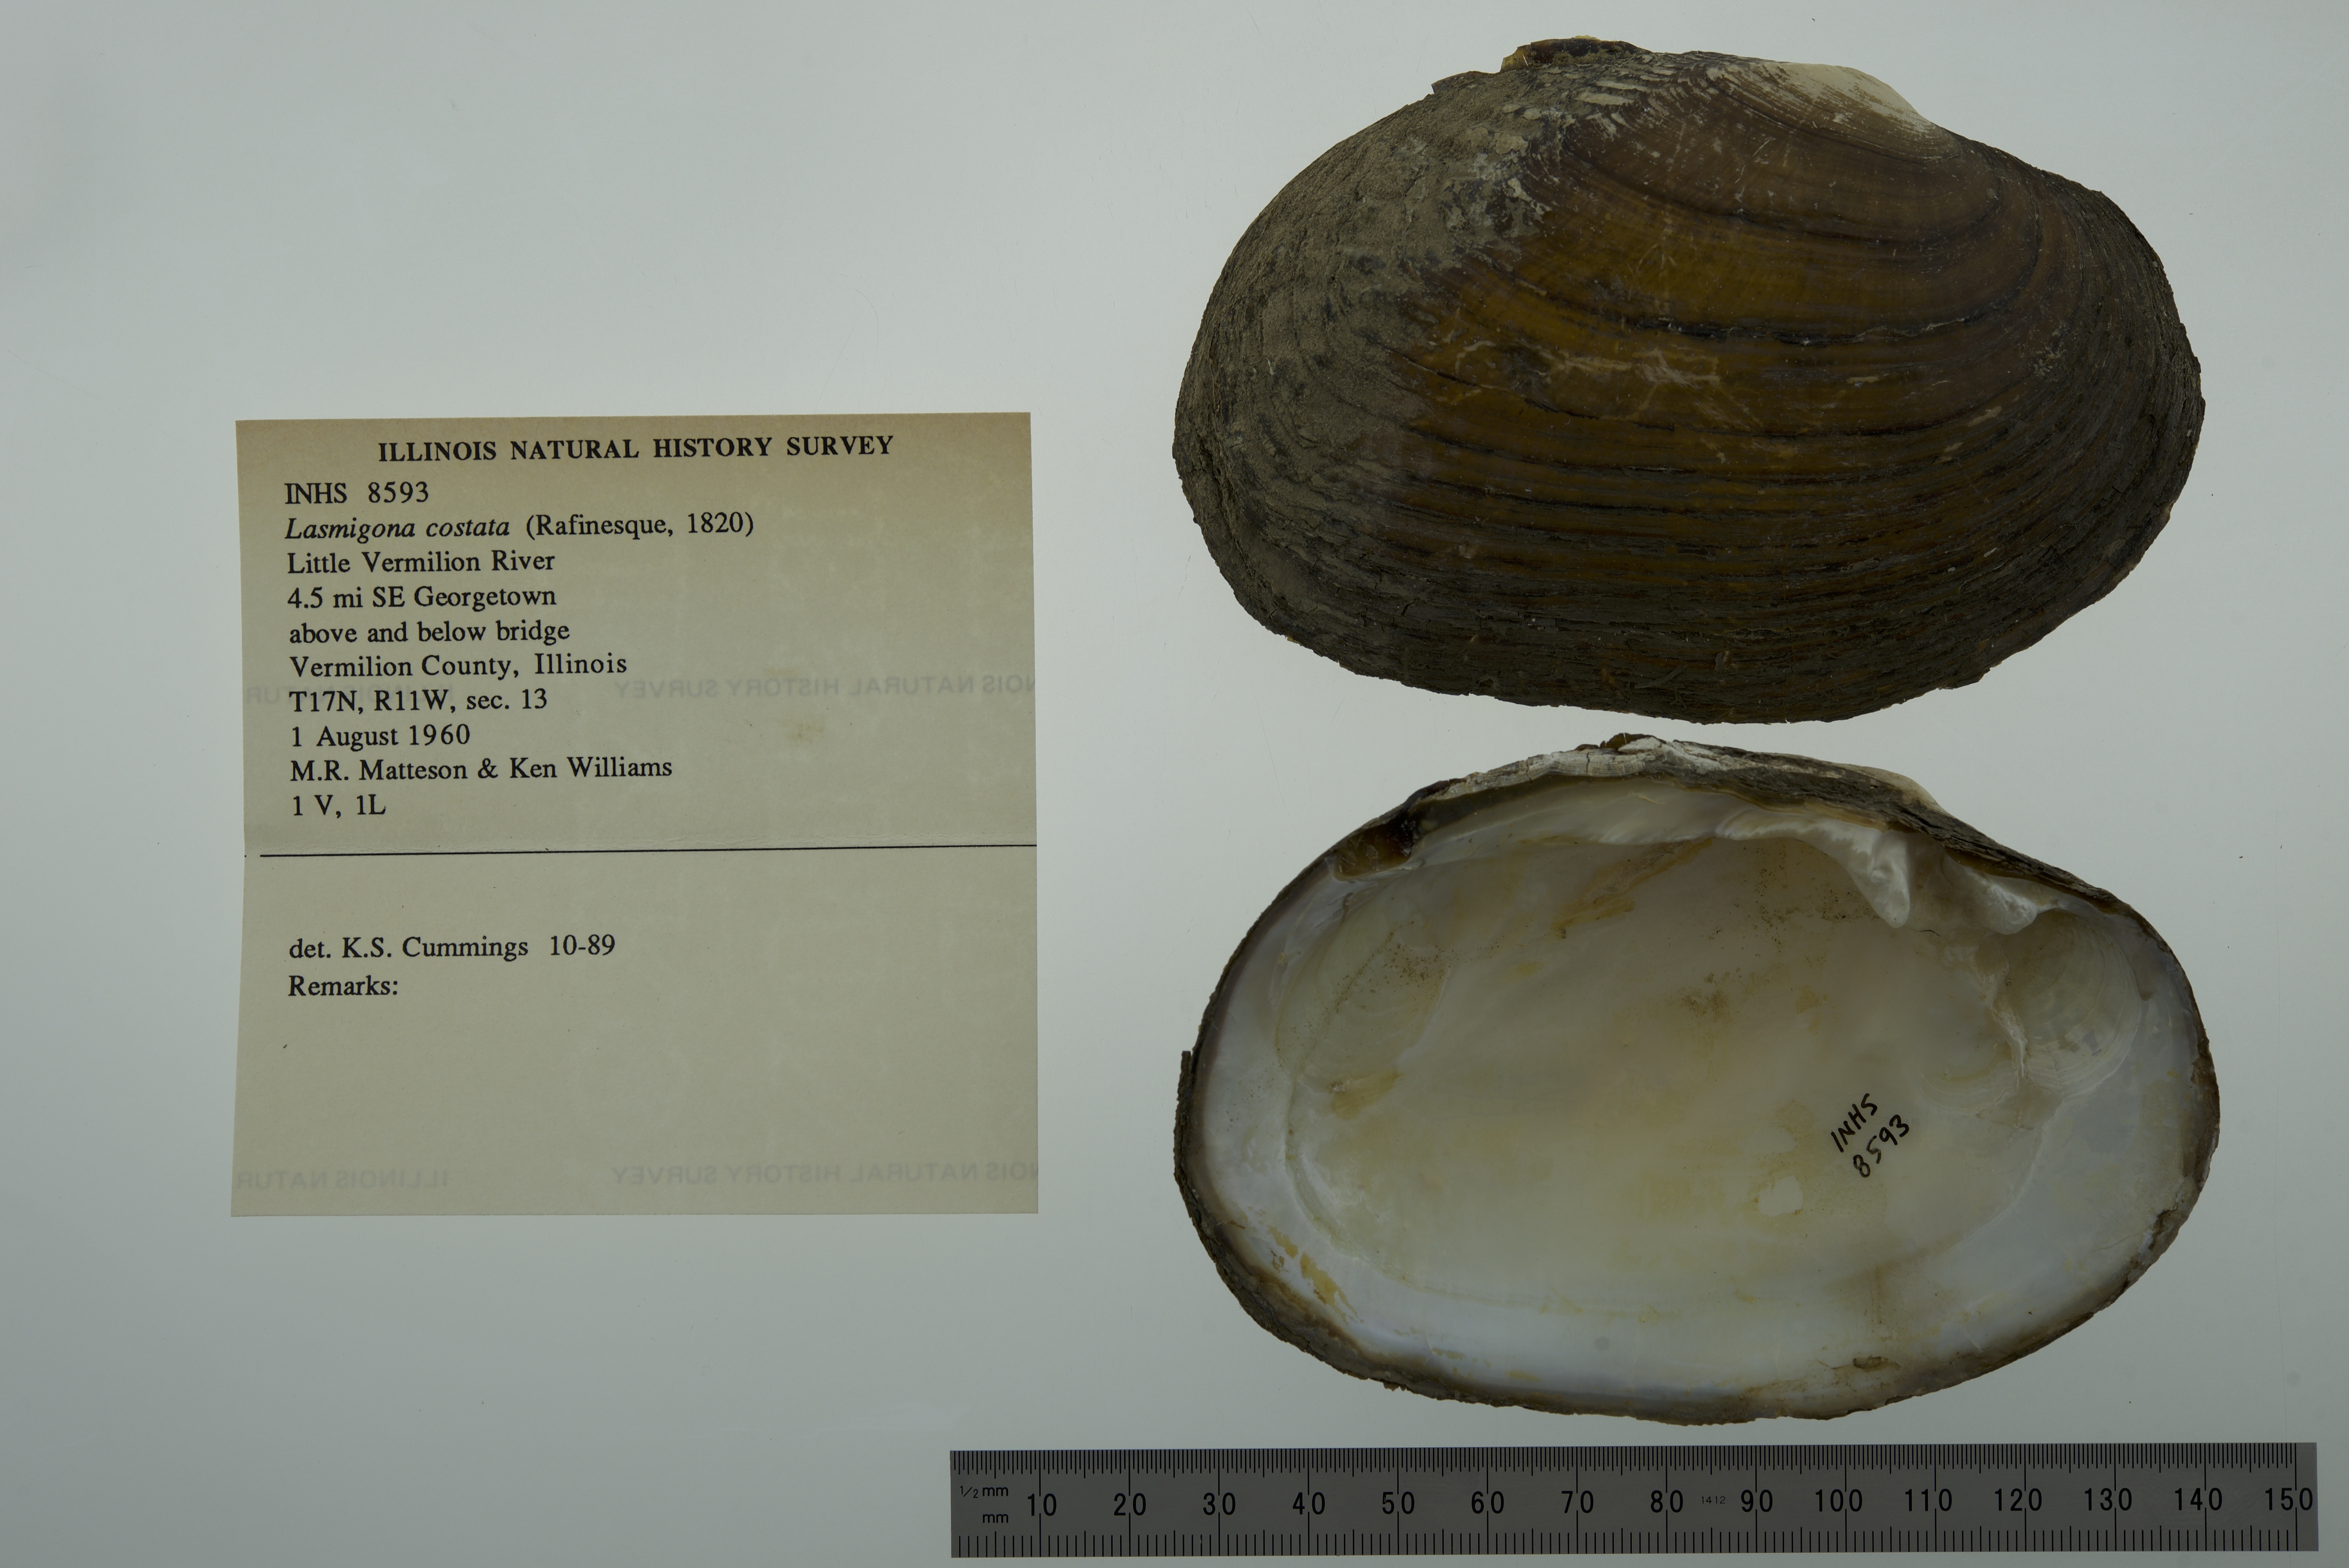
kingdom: Animalia
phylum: Mollusca
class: Bivalvia
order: Unionida
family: Unionidae
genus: Lasmigona
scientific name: Lasmigona costata
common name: Flutedshell
